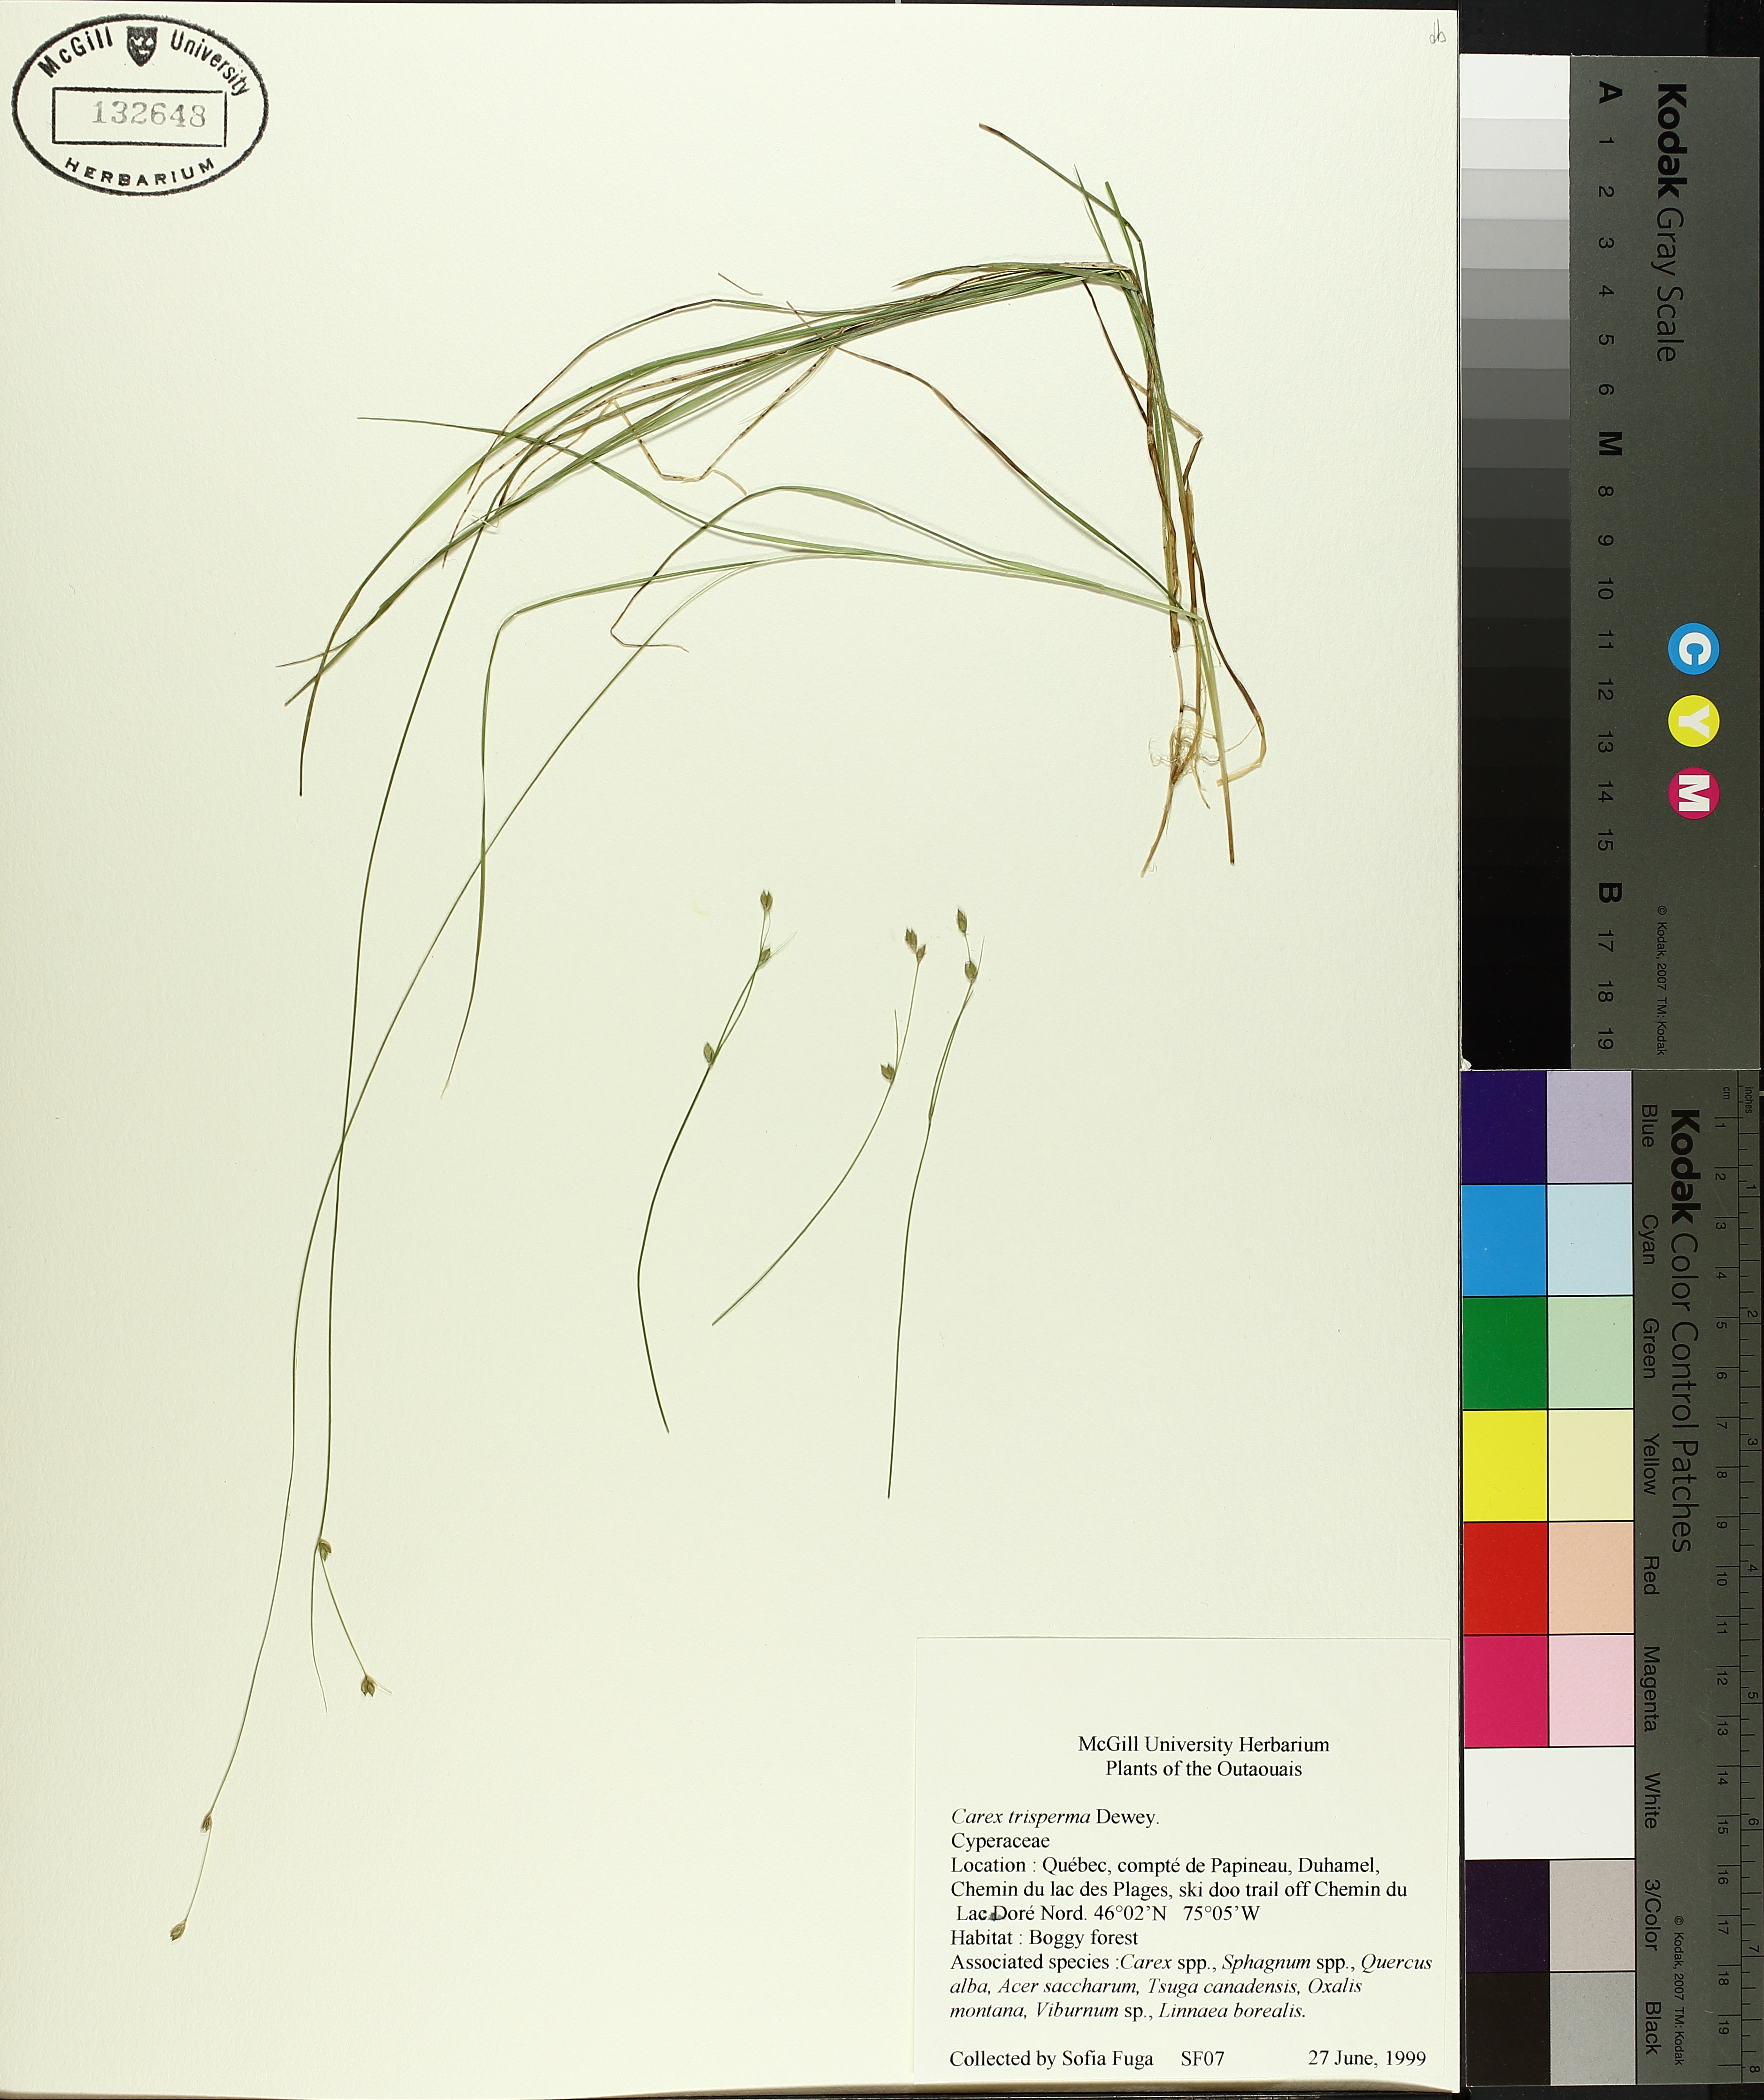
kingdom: Plantae
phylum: Tracheophyta
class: Liliopsida
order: Poales
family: Cyperaceae
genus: Carex
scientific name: Carex trisperma
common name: Three-seeded sedge
